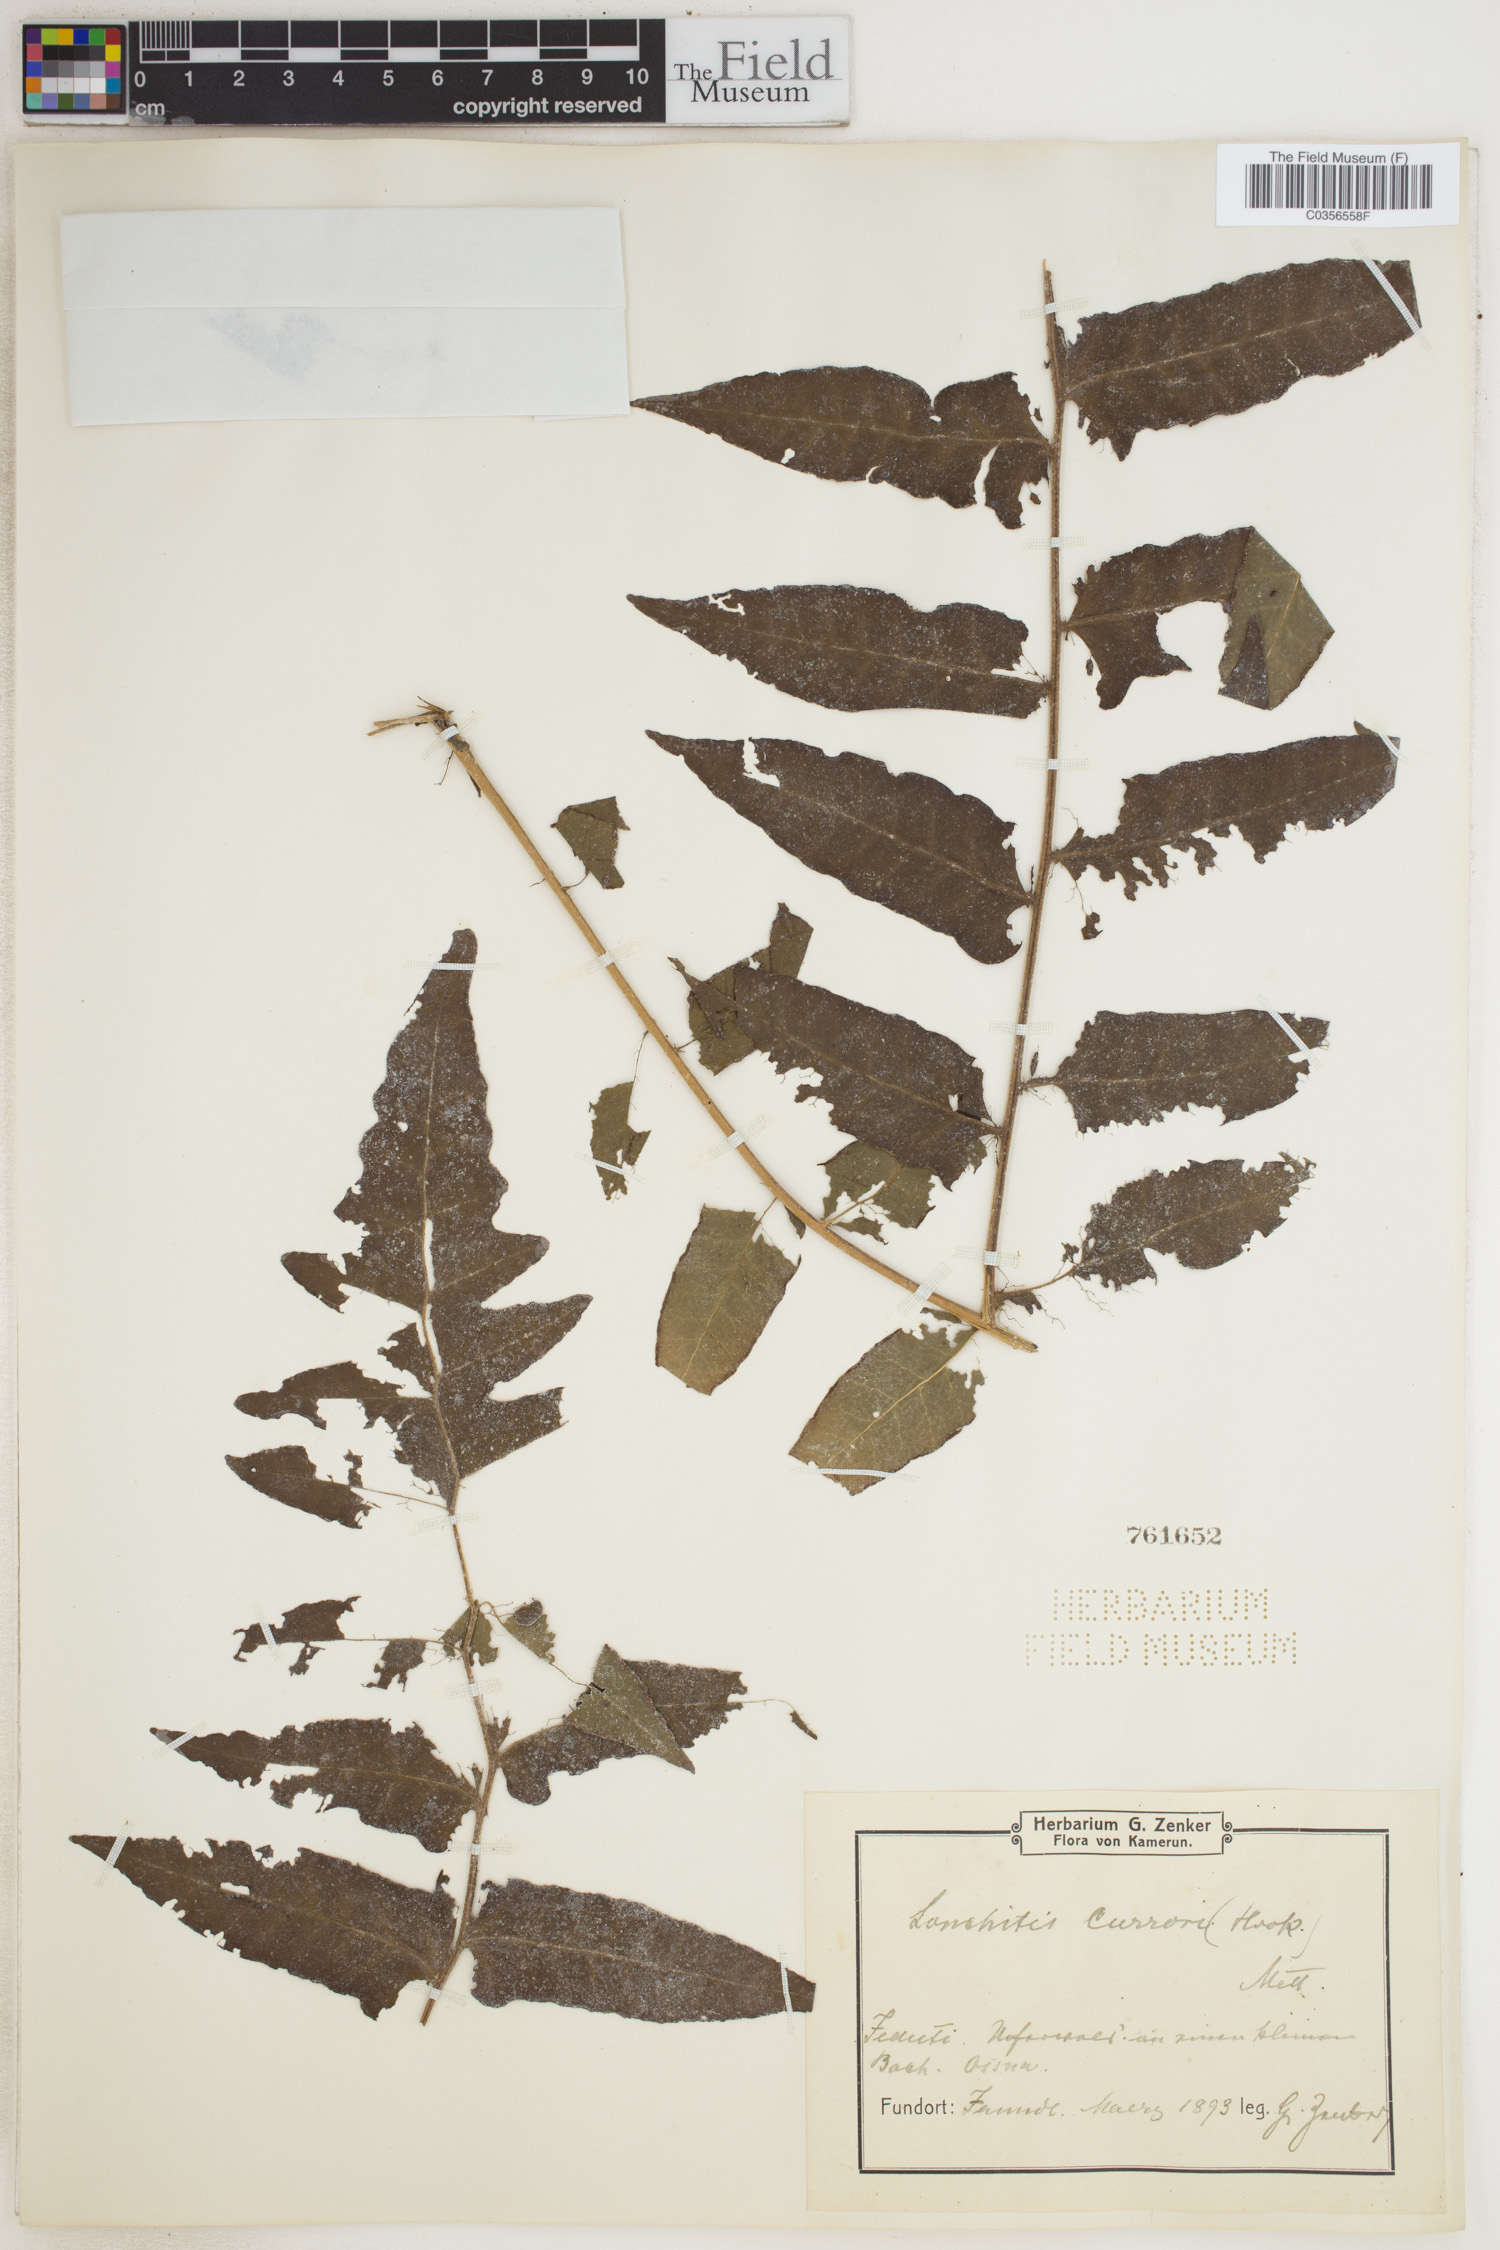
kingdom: Plantae
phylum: Tracheophyta
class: Polypodiopsida
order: Polypodiales
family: Dennstaedtiaceae
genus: Blotiella
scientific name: Blotiella currorii
